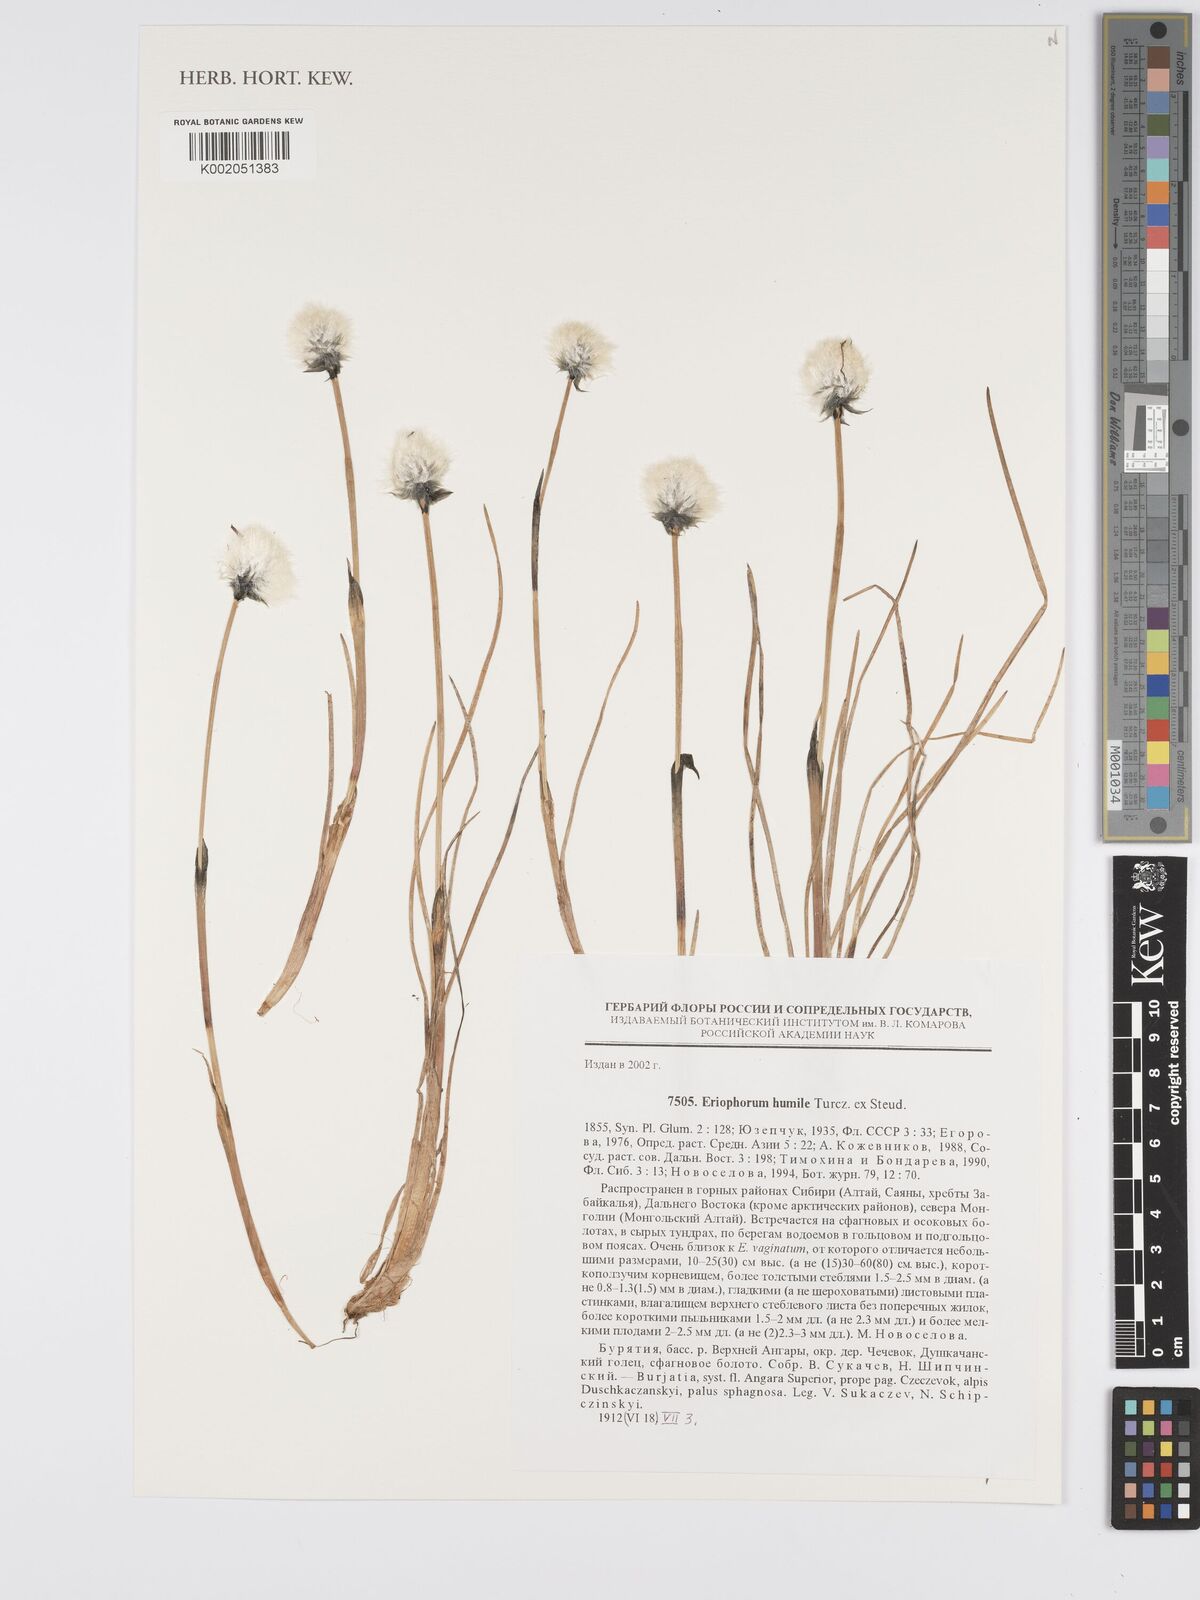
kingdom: Plantae
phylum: Tracheophyta
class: Liliopsida
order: Poales
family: Cyperaceae
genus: Eriophorum
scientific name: Eriophorum humile
